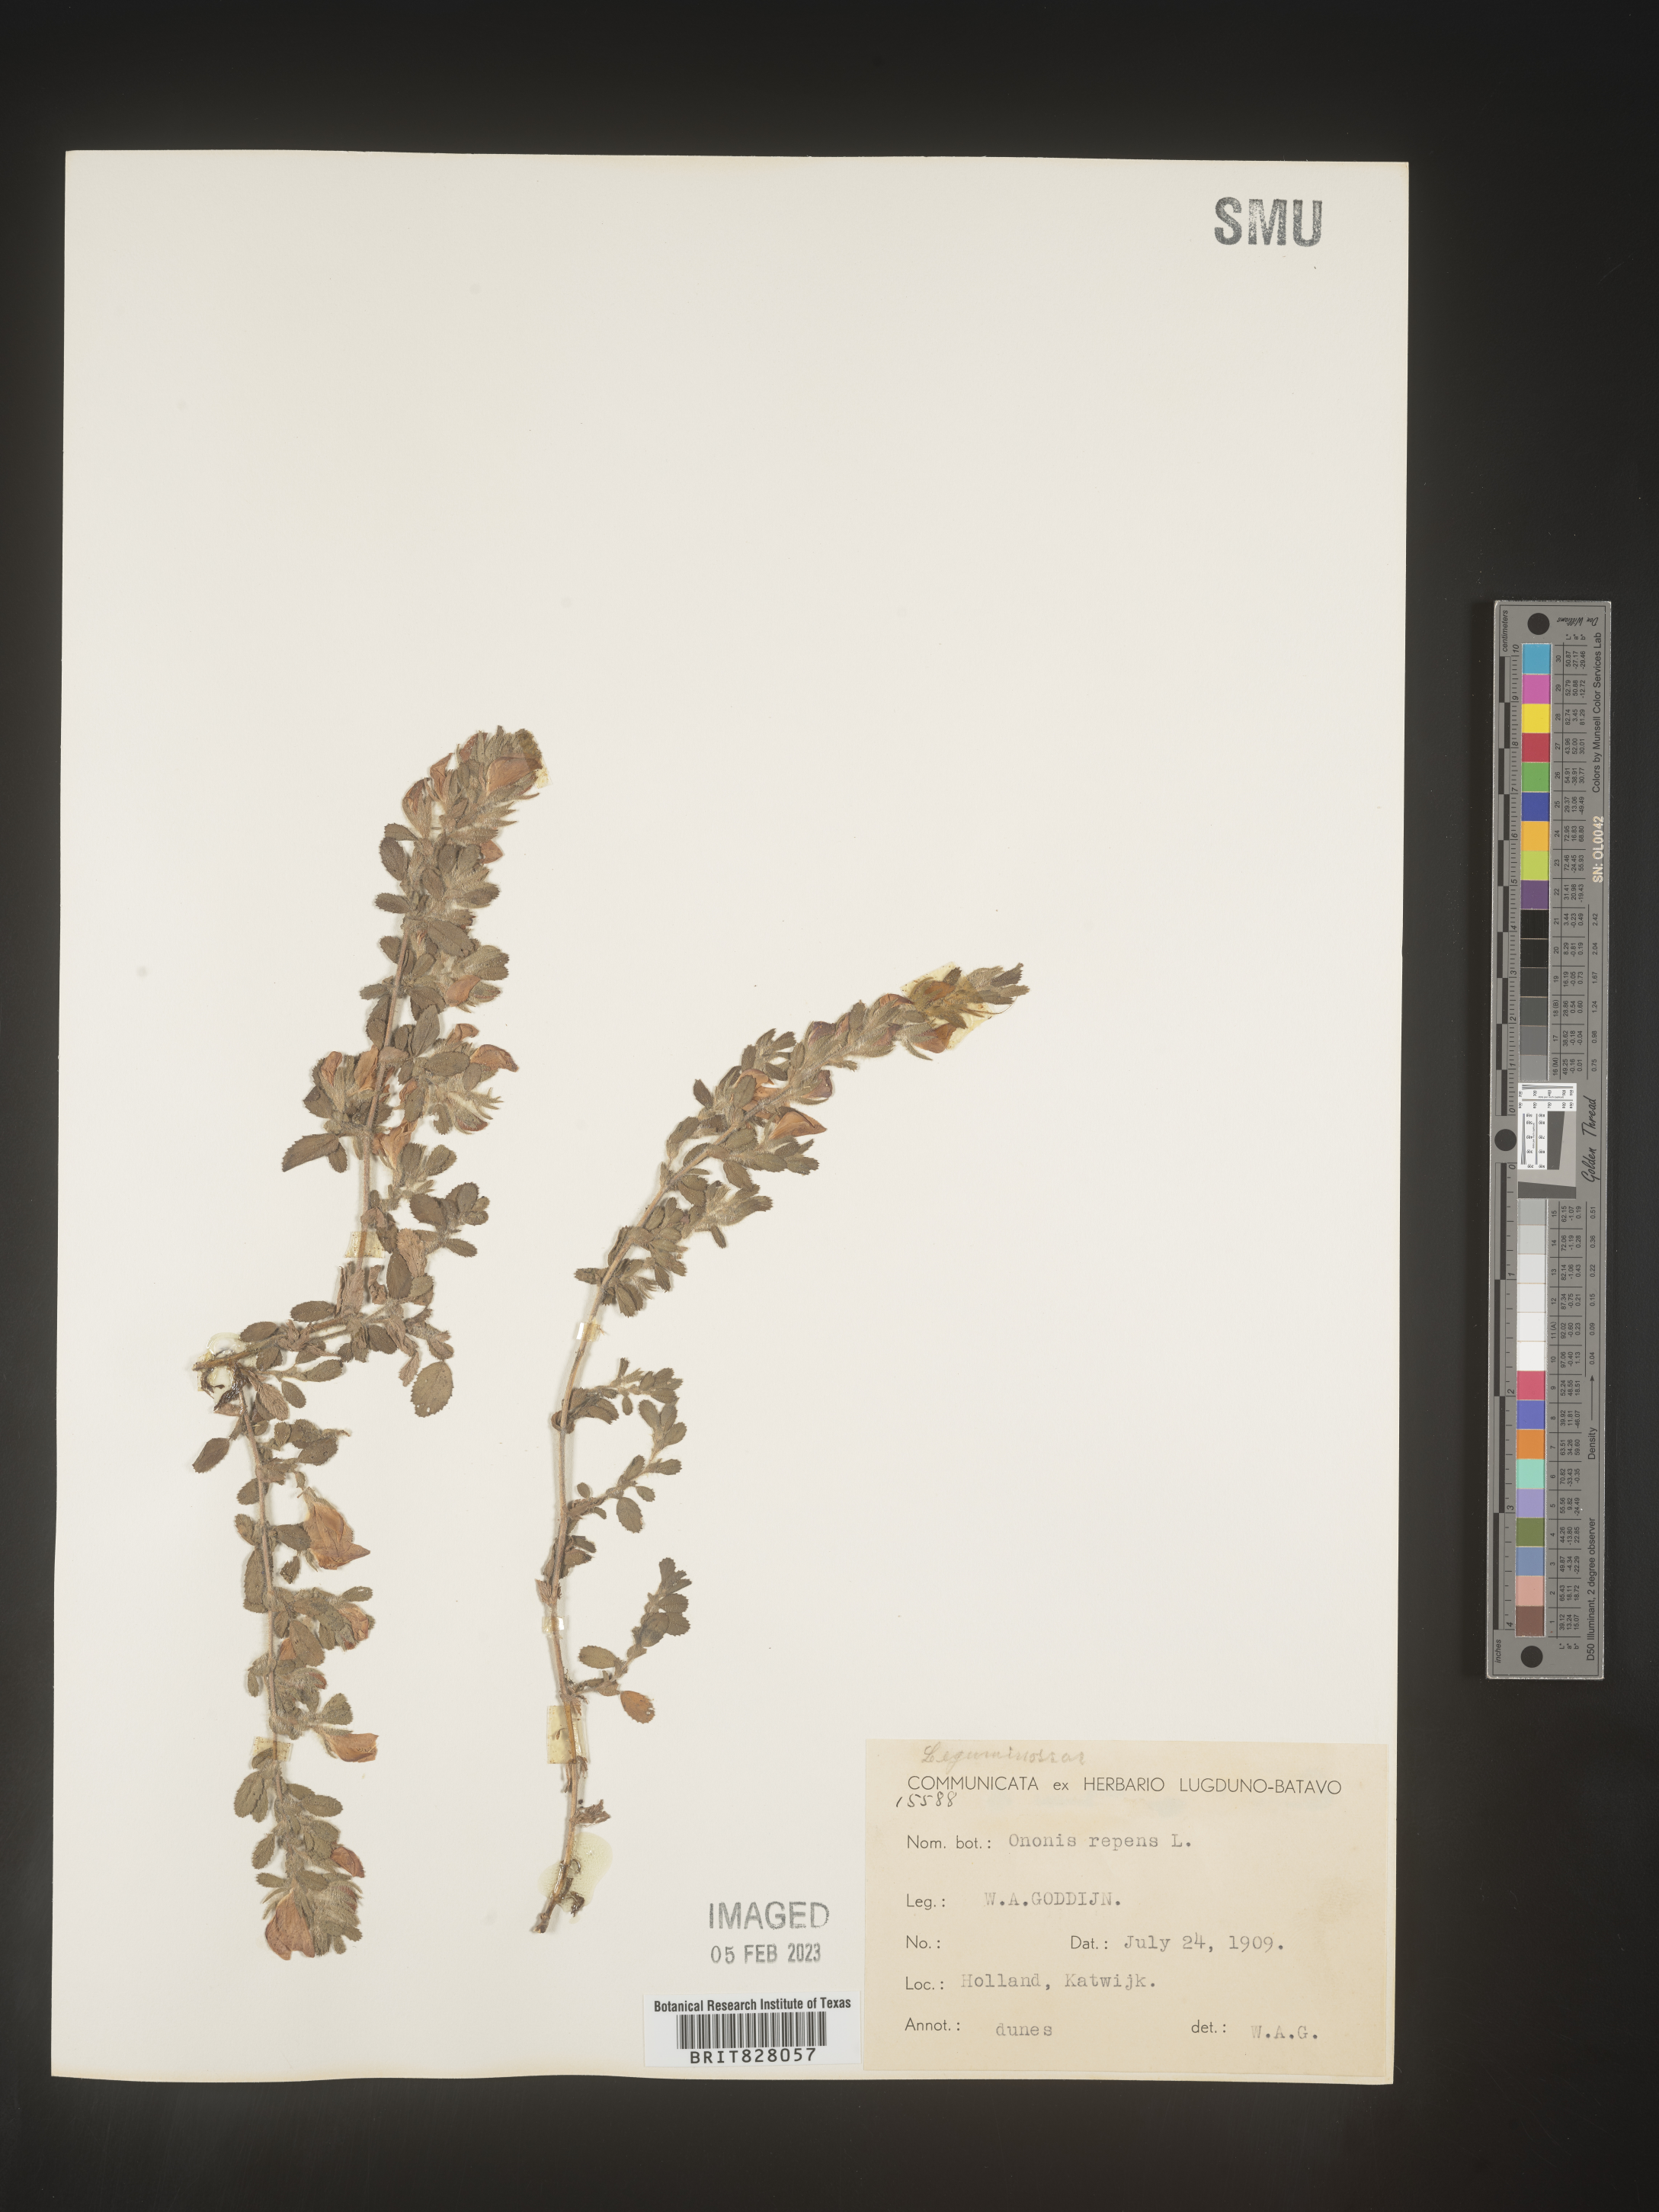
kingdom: Plantae
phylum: Tracheophyta
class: Magnoliopsida
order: Fabales
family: Fabaceae
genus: Ononis
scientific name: Ononis
